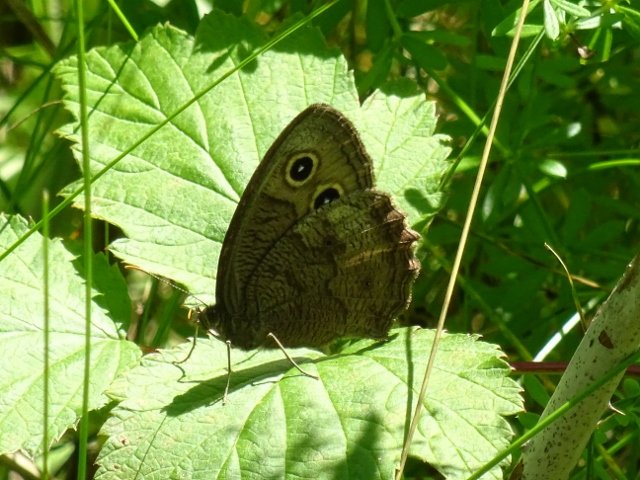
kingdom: Animalia
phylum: Arthropoda
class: Insecta
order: Lepidoptera
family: Nymphalidae
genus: Cercyonis
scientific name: Cercyonis pegala
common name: Common Wood-Nymph
